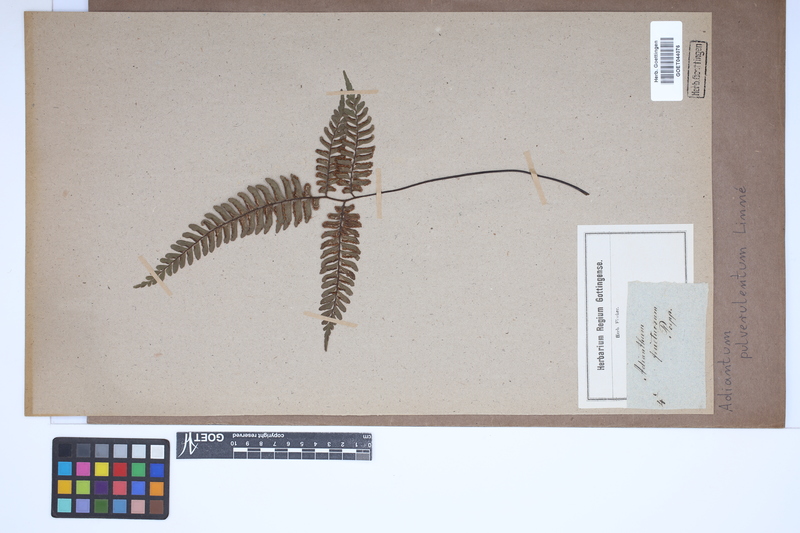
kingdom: Plantae
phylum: Tracheophyta
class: Polypodiopsida
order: Polypodiales
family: Pteridaceae
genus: Adiantum
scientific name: Adiantum pulverulentum
